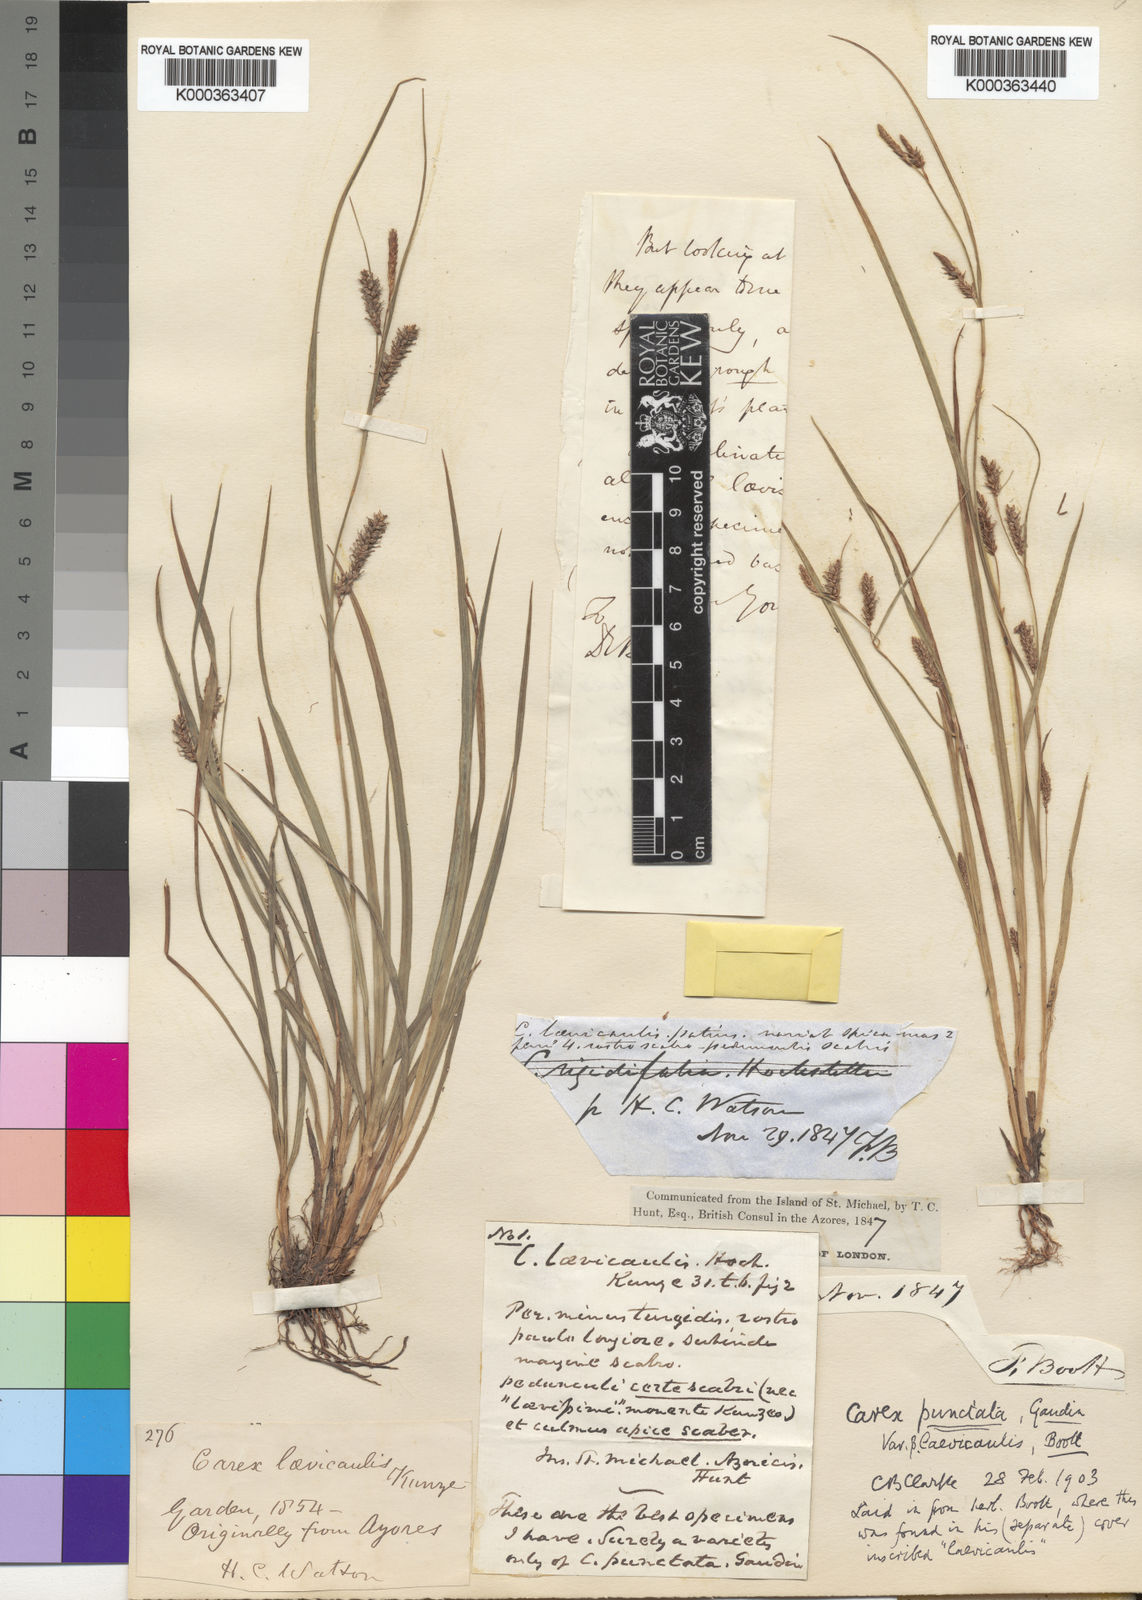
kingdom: Plantae
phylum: Tracheophyta
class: Liliopsida
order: Poales
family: Cyperaceae
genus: Carex
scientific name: Carex laevicaulis
